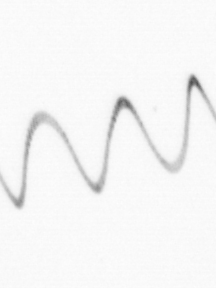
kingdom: Chromista
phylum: Ochrophyta
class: Bacillariophyceae
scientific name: Bacillariophyceae
